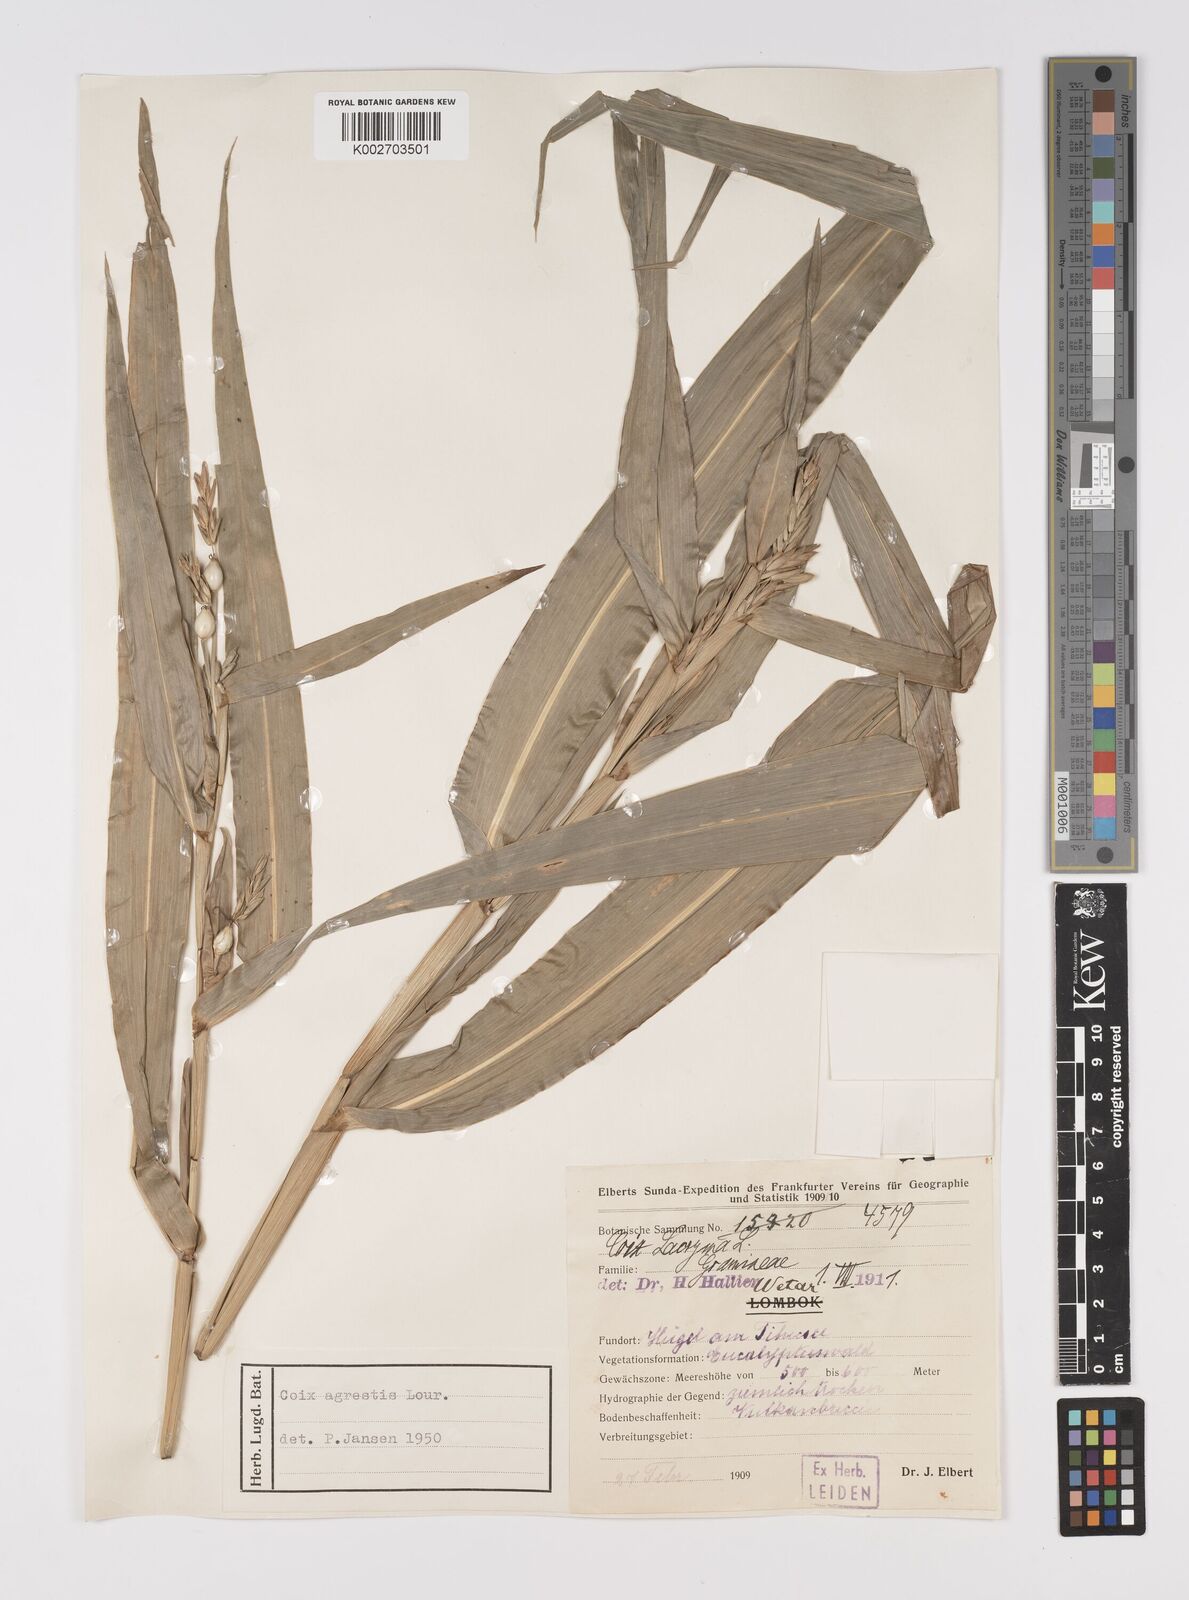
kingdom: Plantae
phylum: Tracheophyta
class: Liliopsida
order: Poales
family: Poaceae
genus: Coix
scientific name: Coix lacryma-jobi
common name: Job's tears
